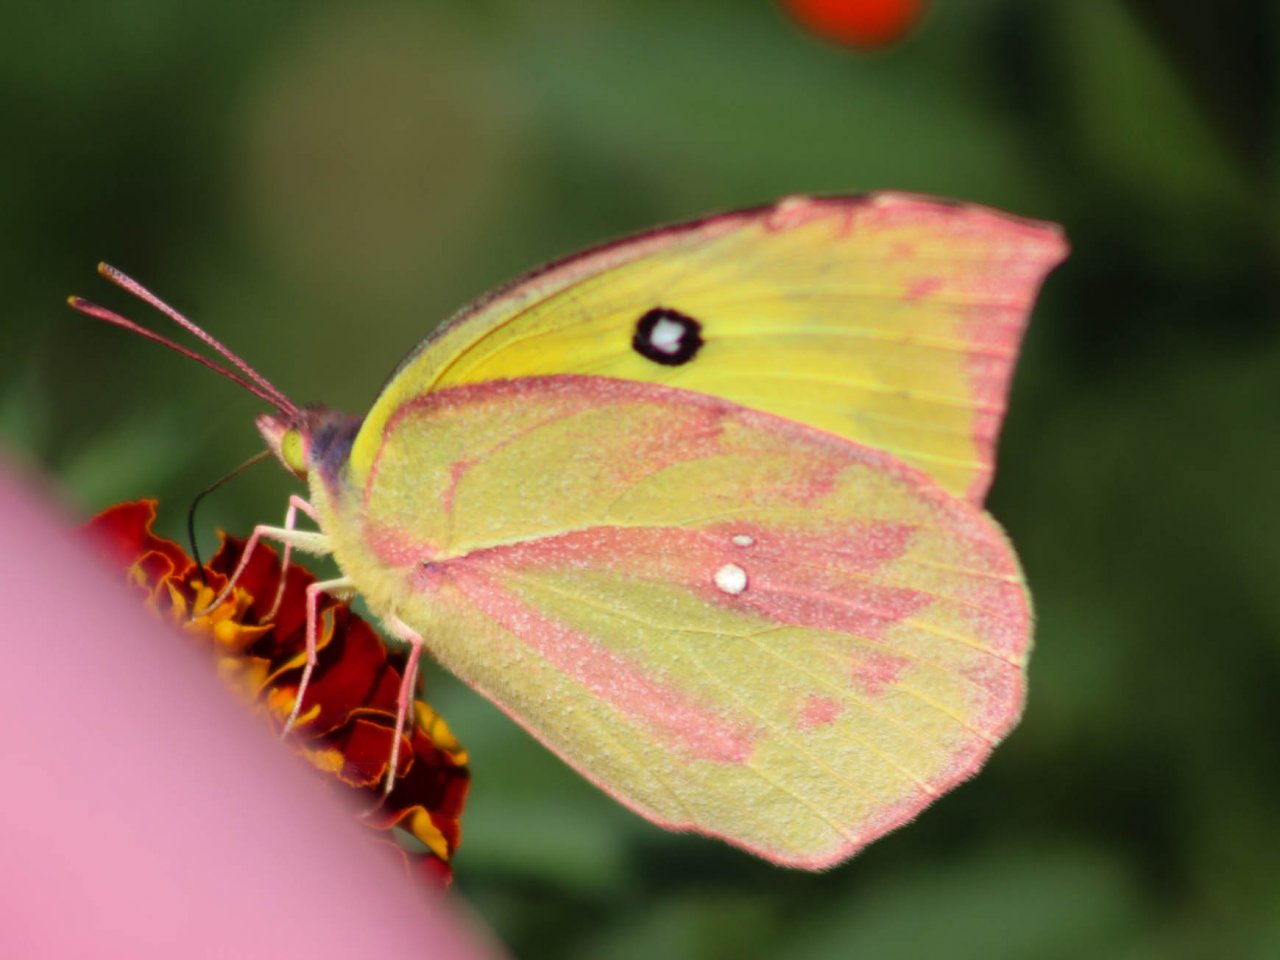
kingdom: Animalia
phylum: Arthropoda
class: Insecta
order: Lepidoptera
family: Pieridae
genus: Zerene
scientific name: Zerene cesonia
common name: Southern Dogface
